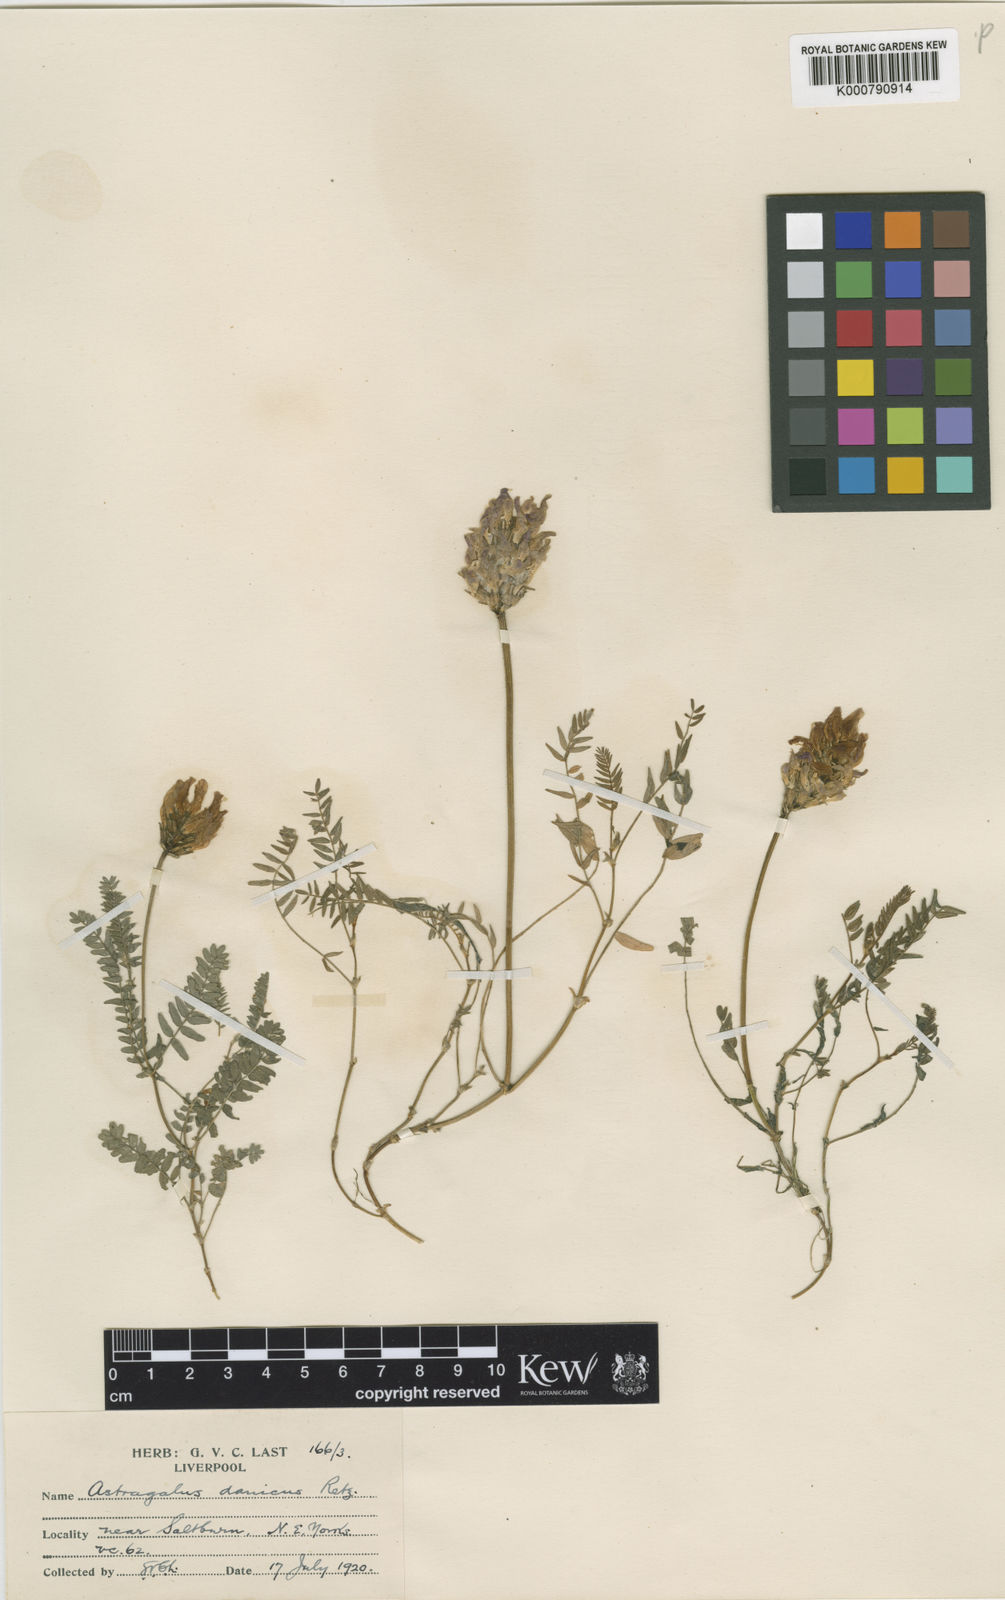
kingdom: Plantae
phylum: Tracheophyta
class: Magnoliopsida
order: Fabales
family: Fabaceae
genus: Astragalus
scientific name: Astragalus danicus
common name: Purple milk-vetch
